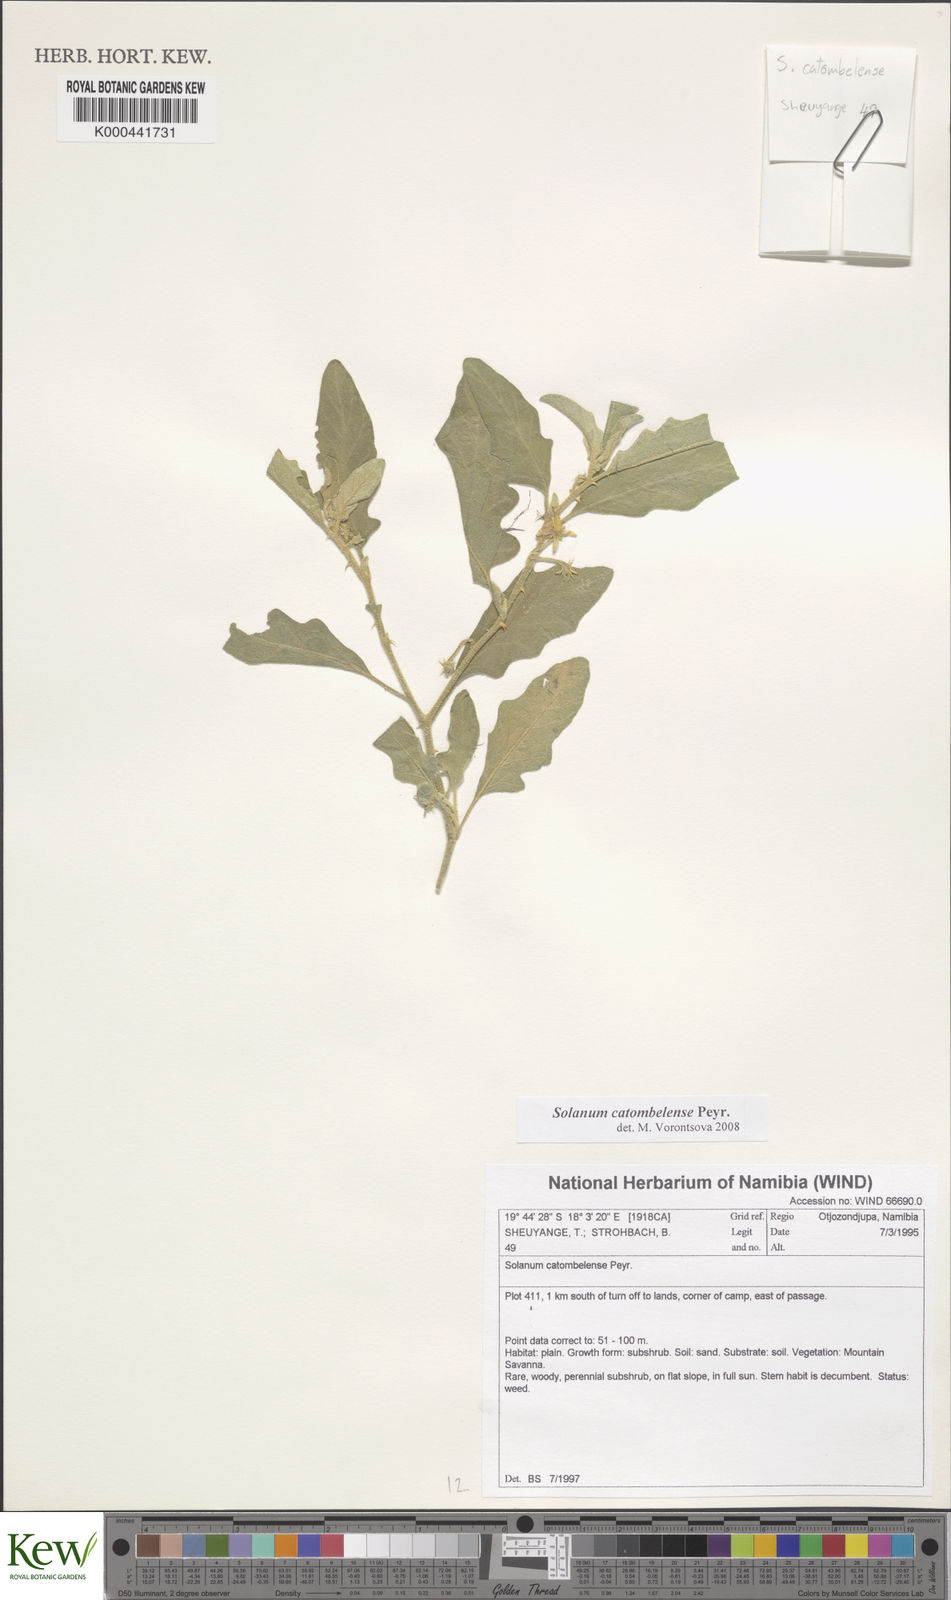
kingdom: Plantae
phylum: Tracheophyta
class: Magnoliopsida
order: Solanales
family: Solanaceae
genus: Solanum
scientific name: Solanum catombelense
